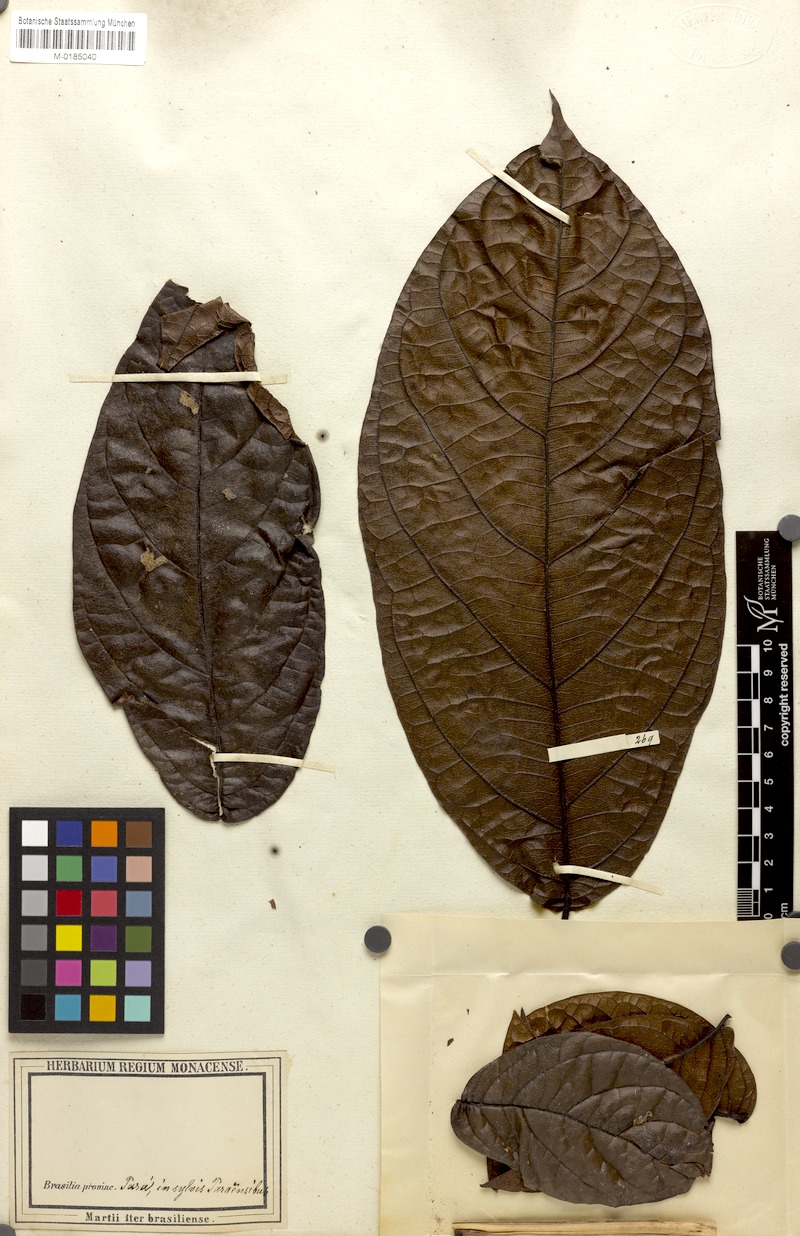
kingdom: Plantae
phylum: Tracheophyta
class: Magnoliopsida
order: Boraginales
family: Cordiaceae
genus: Cordia
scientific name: Cordia nodosa
